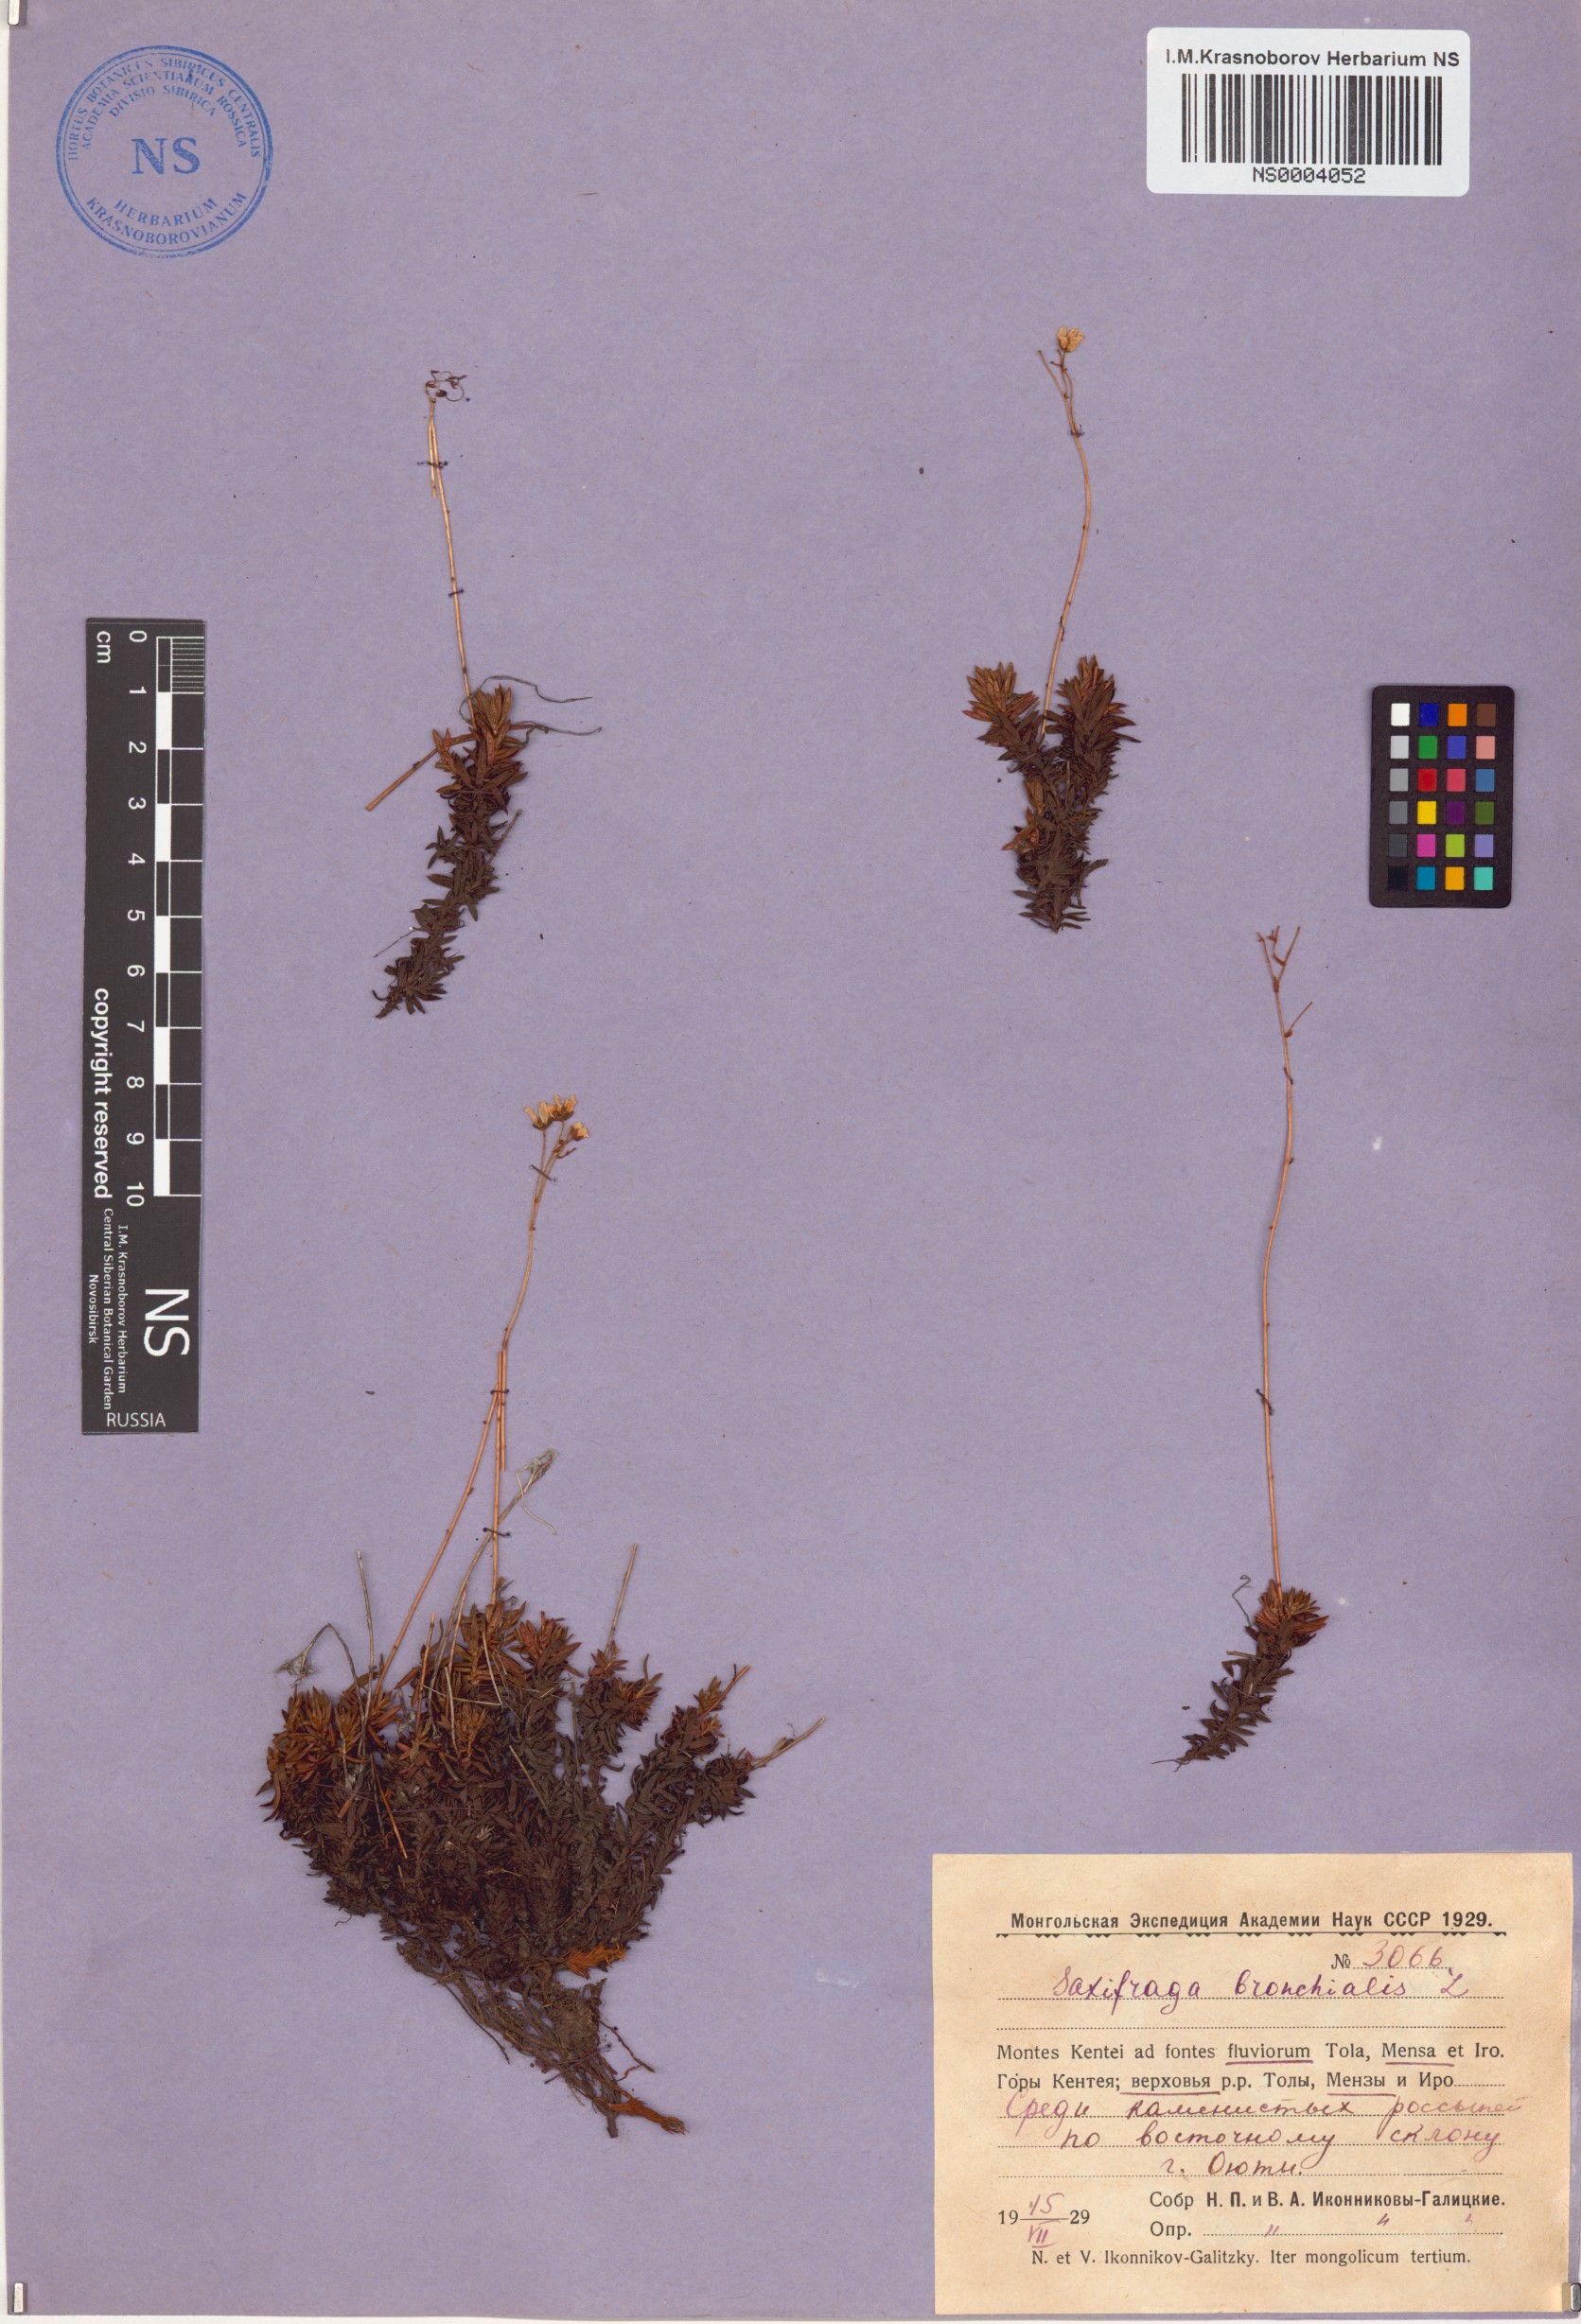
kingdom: Plantae
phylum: Tracheophyta
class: Magnoliopsida
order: Saxifragales
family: Saxifragaceae
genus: Saxifraga
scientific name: Saxifraga bronchialis
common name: Matted saxifrage
